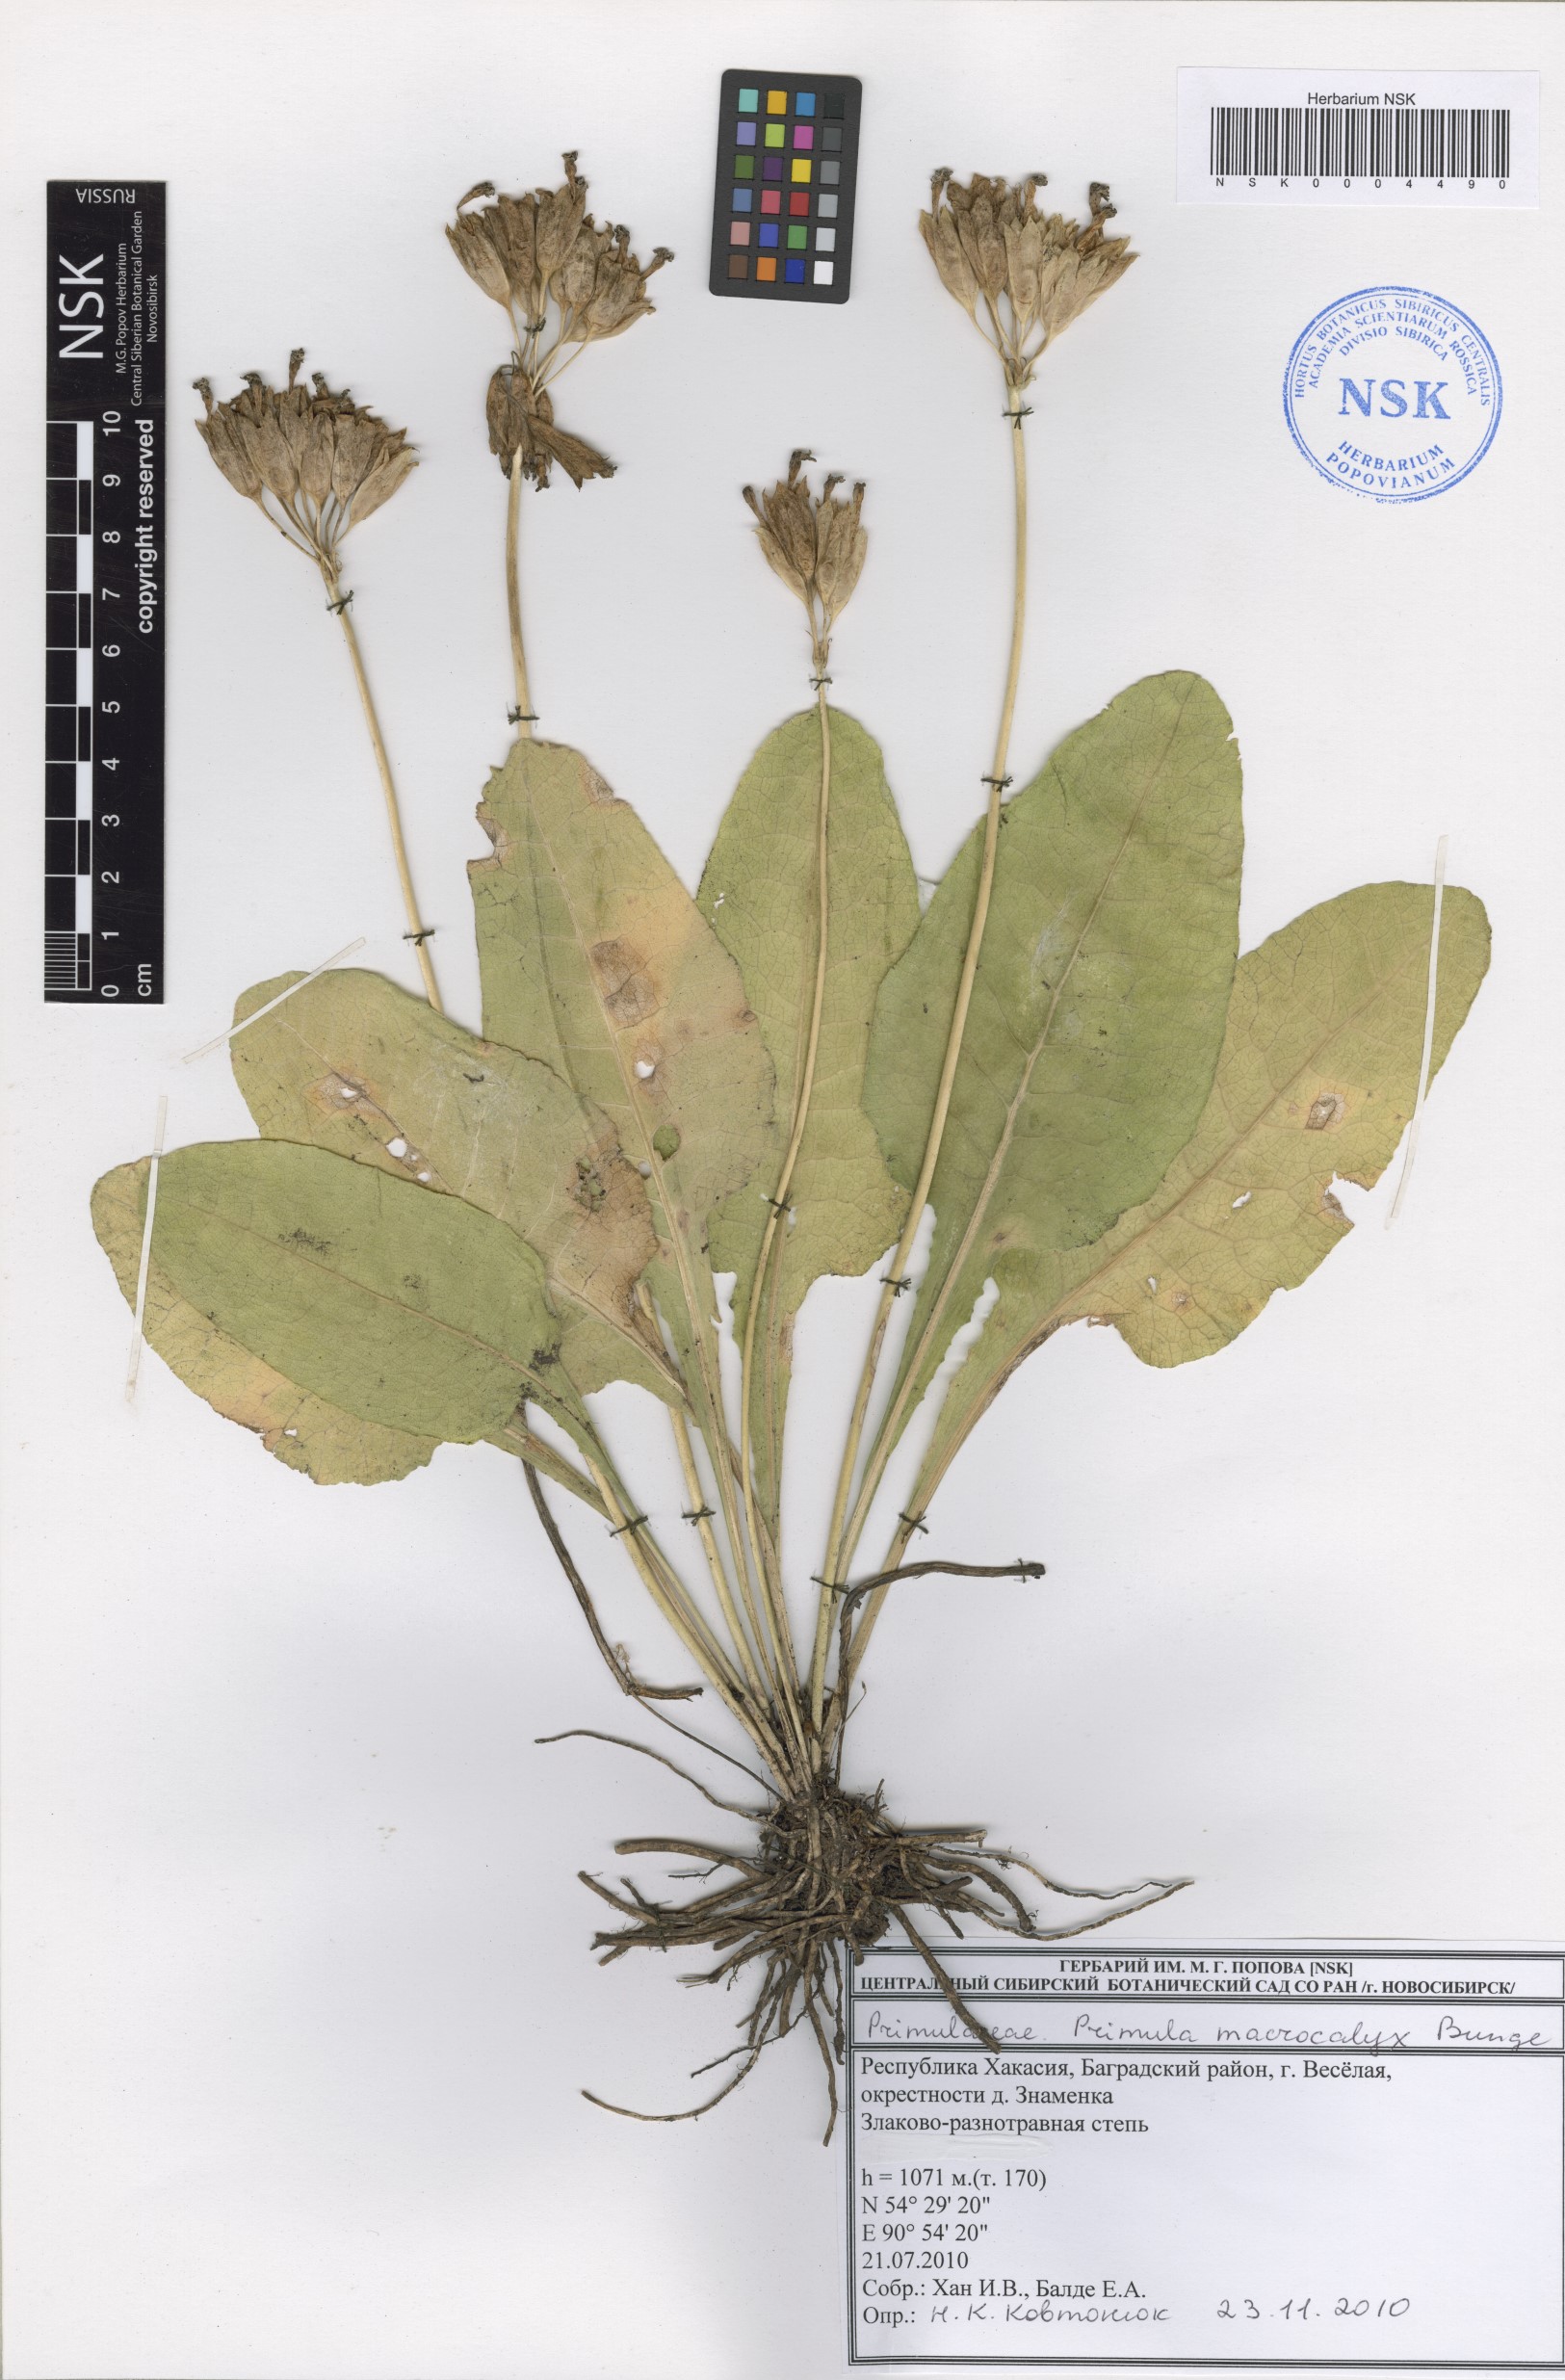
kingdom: Plantae
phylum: Tracheophyta
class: Magnoliopsida
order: Ericales
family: Primulaceae
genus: Primula
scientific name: Primula veris
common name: Cowslip
